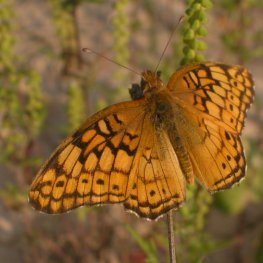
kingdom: Animalia
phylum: Arthropoda
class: Insecta
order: Lepidoptera
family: Nymphalidae
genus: Euptoieta
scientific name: Euptoieta claudia
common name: Variegated Fritillary
